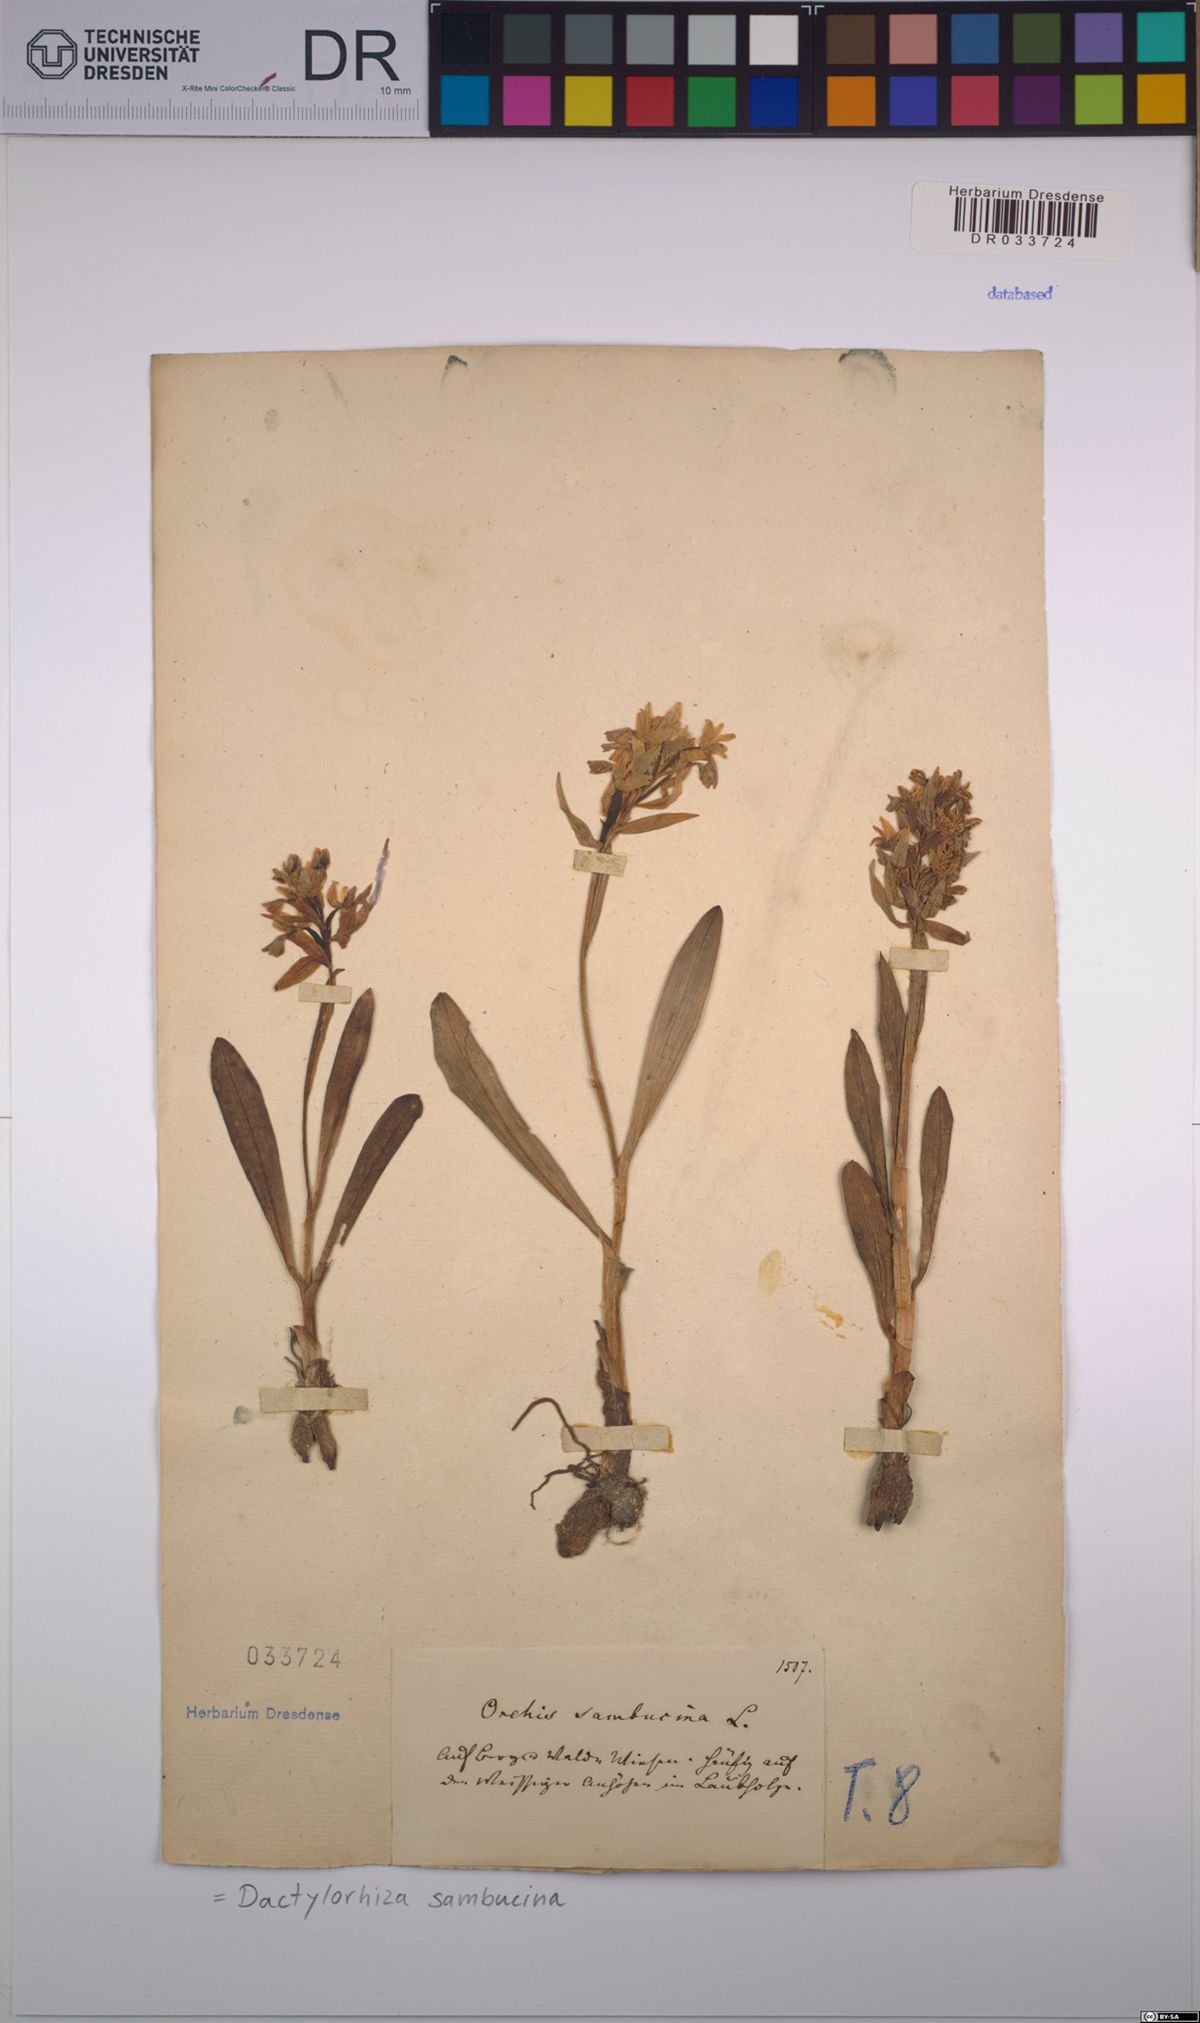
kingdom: Plantae
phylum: Tracheophyta
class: Liliopsida
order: Asparagales
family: Orchidaceae
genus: Dactylorhiza
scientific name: Dactylorhiza sambucina
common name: Elder-flowered orchid
